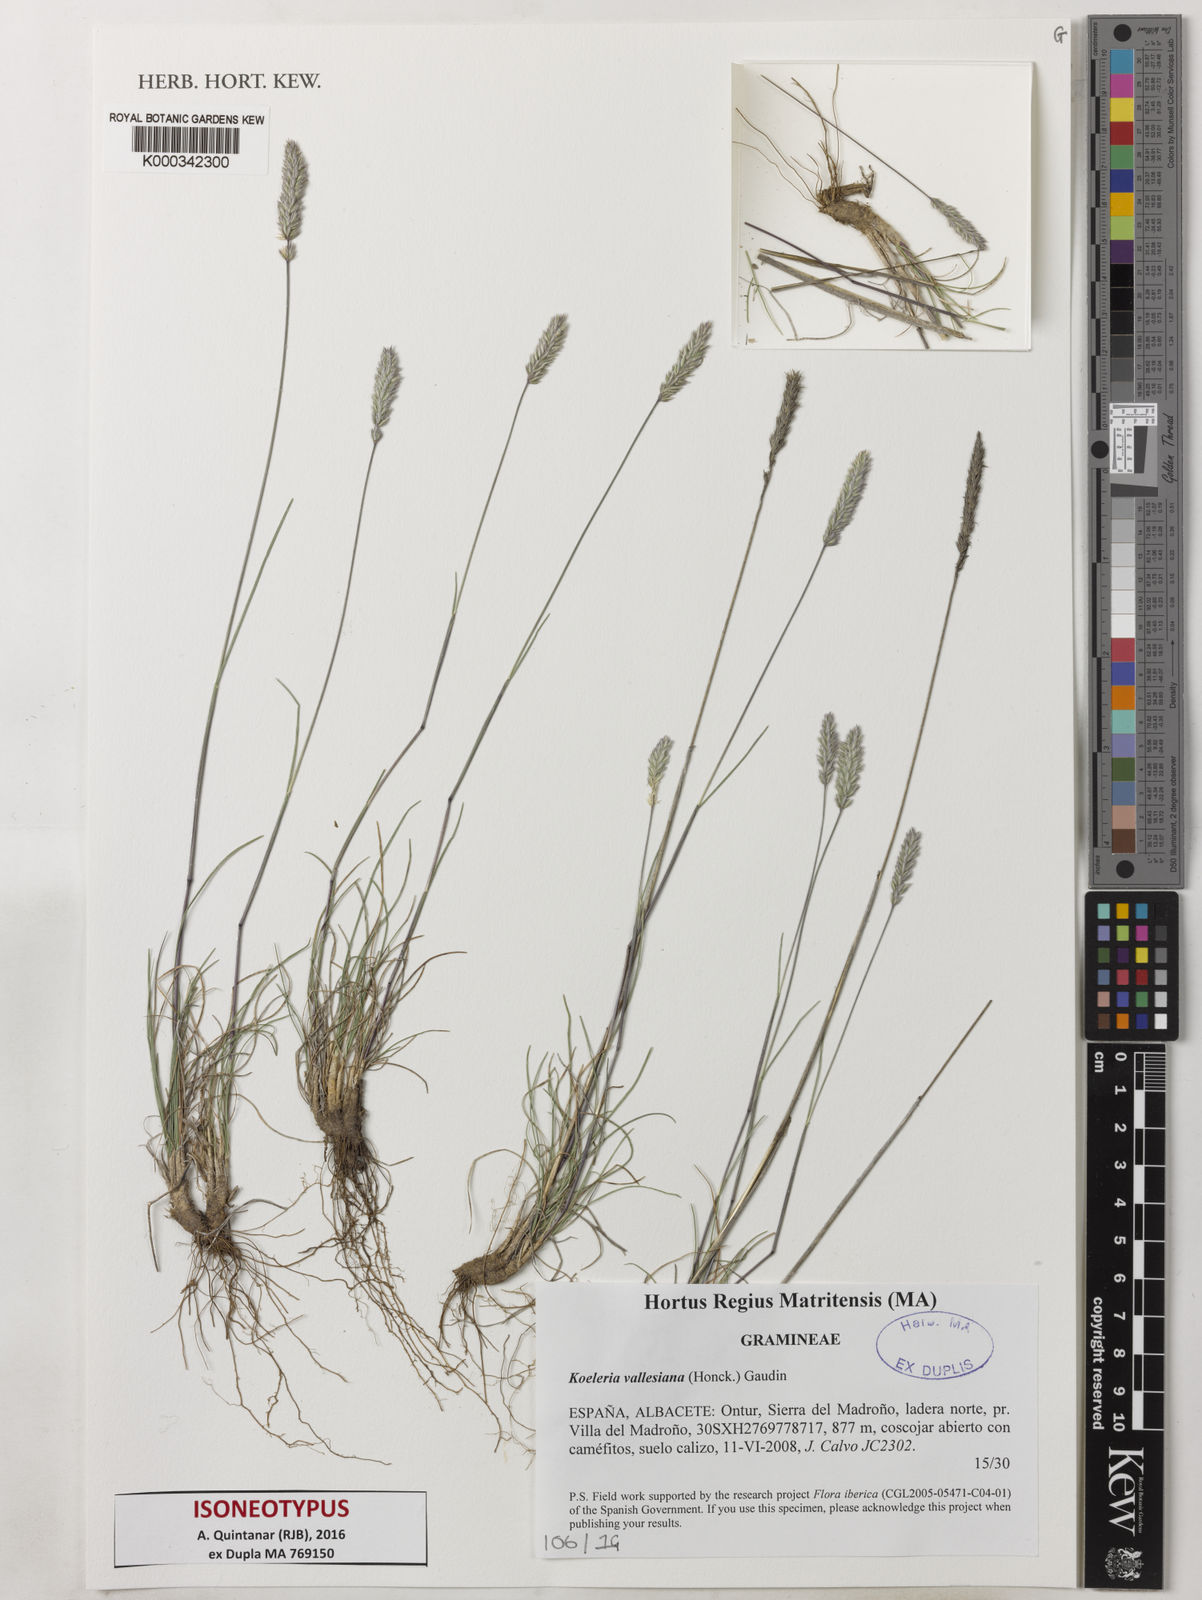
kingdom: Plantae
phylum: Tracheophyta
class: Liliopsida
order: Poales
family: Poaceae
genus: Koeleria
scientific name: Koeleria
